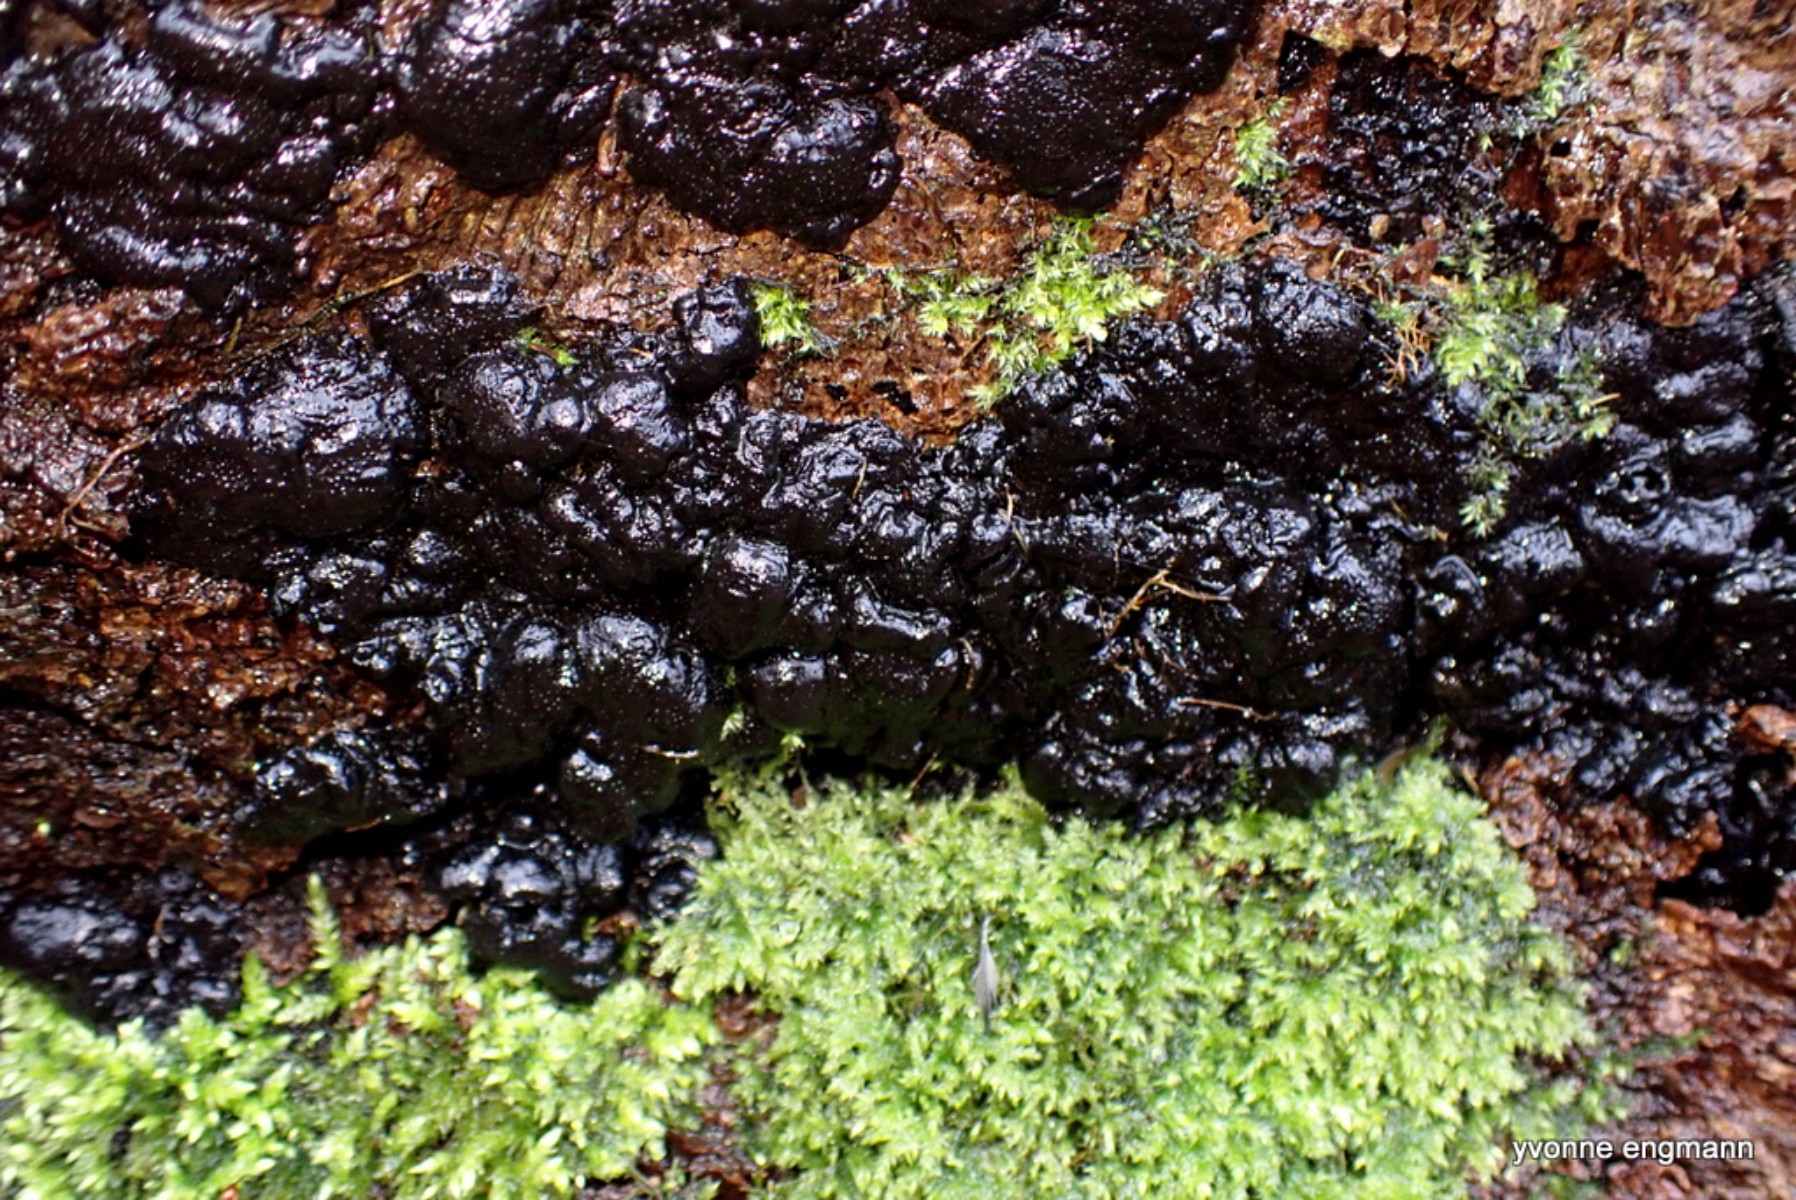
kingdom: Fungi
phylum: Ascomycota
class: Sordariomycetes
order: Xylariales
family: Xylariaceae
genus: Kretzschmaria
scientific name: Kretzschmaria deusta
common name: stor kulsvamp
